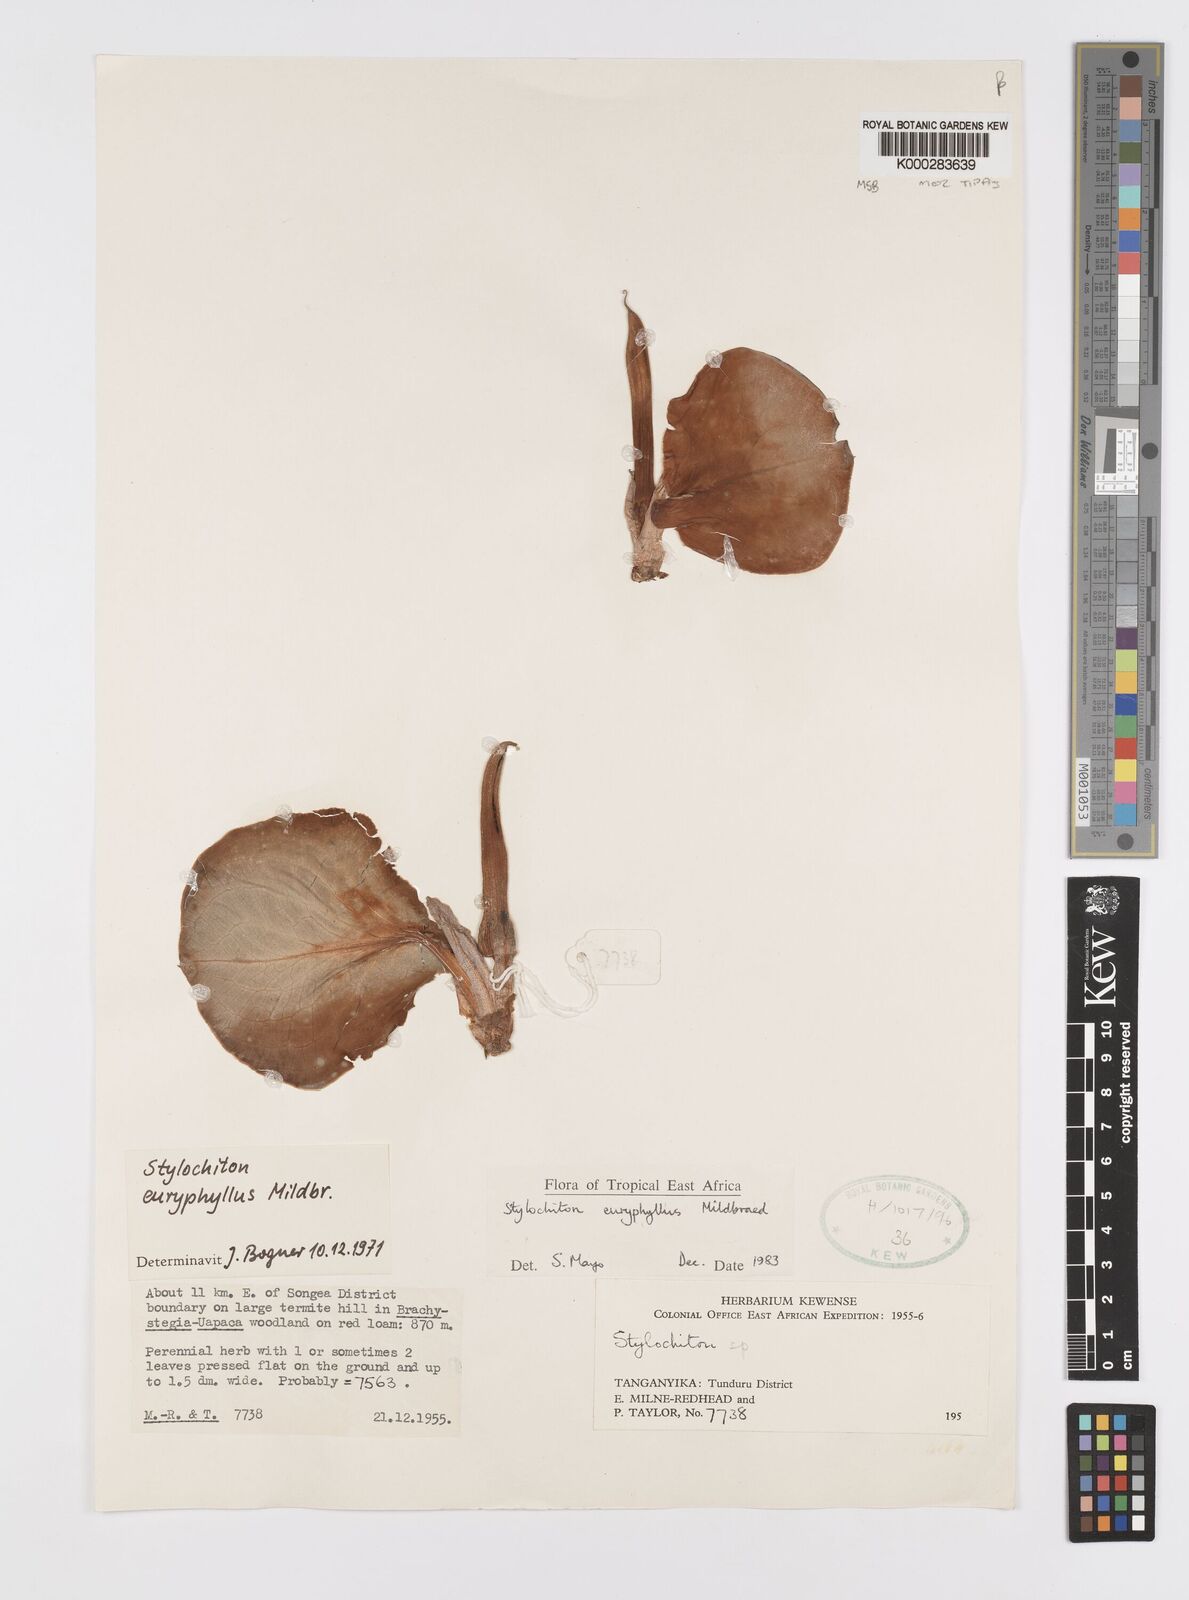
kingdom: Plantae
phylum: Tracheophyta
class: Liliopsida
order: Alismatales
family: Araceae
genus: Stylochaeton
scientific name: Stylochaeton euryphyllum
